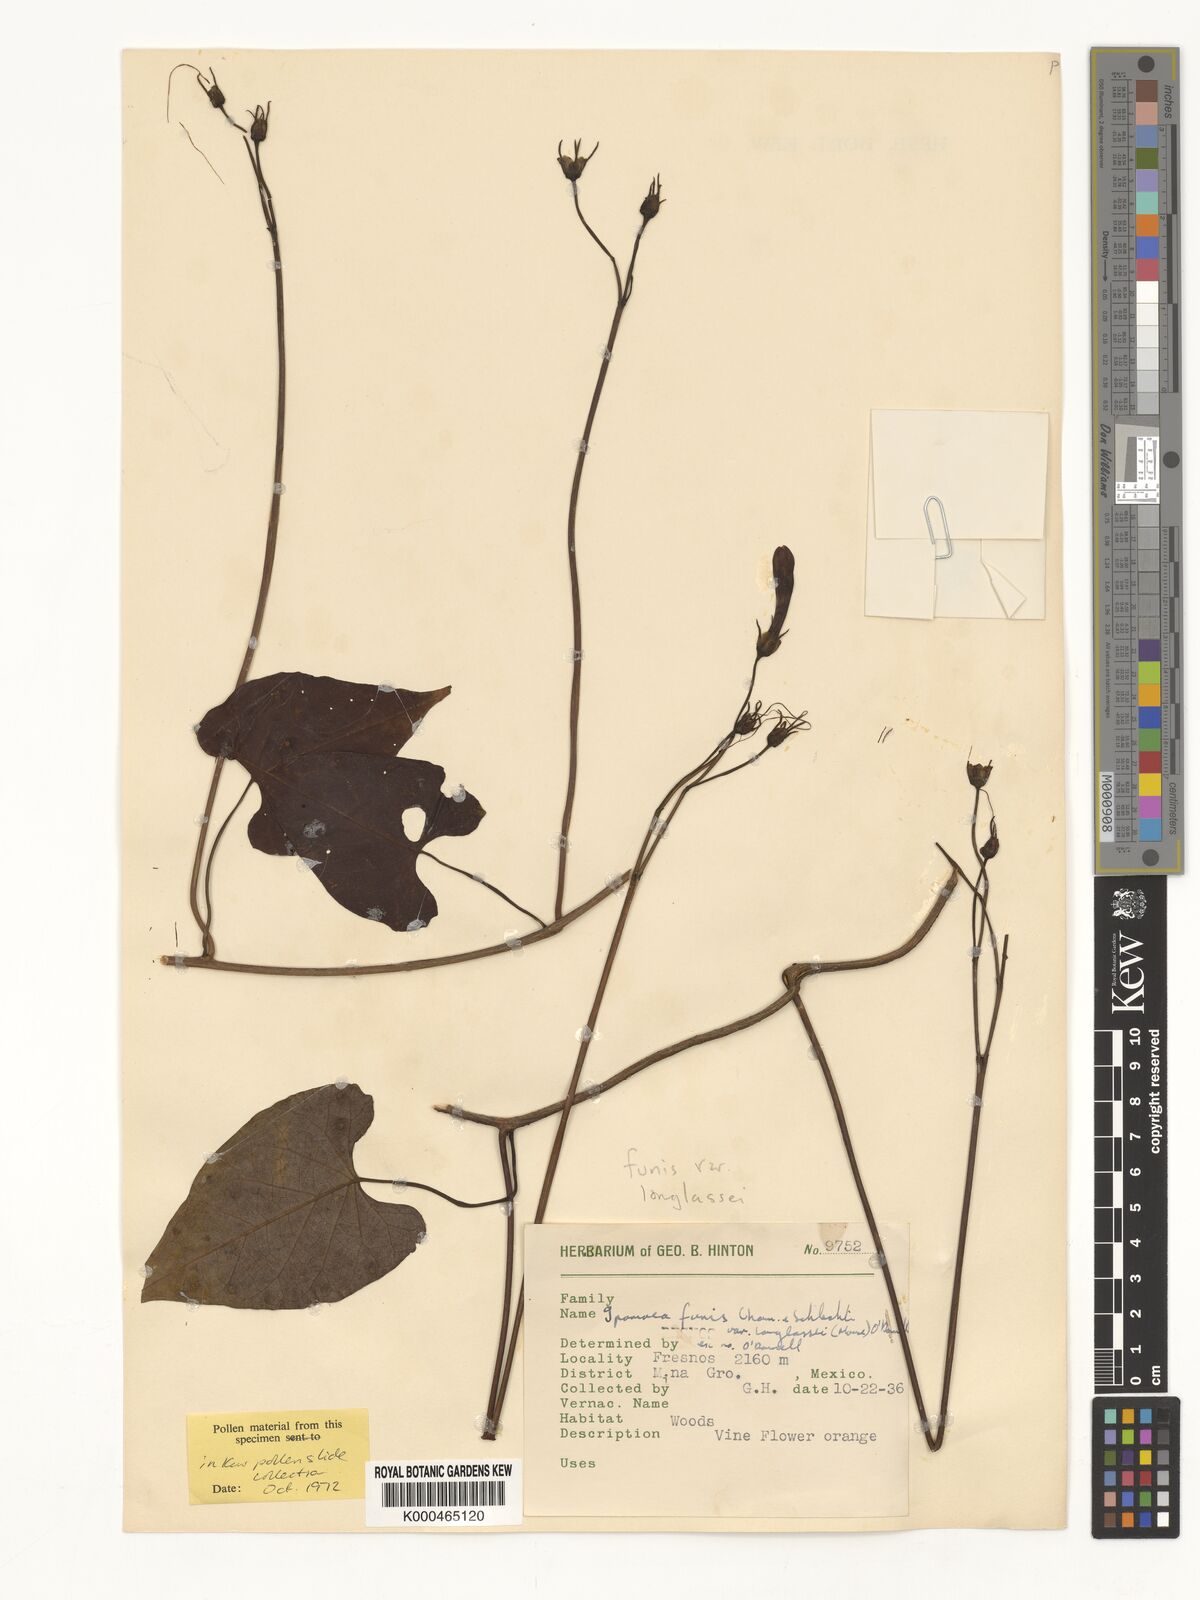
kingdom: Plantae
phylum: Tracheophyta
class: Magnoliopsida
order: Solanales
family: Convolvulaceae
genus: Ipomoea
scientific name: Ipomoea funis
